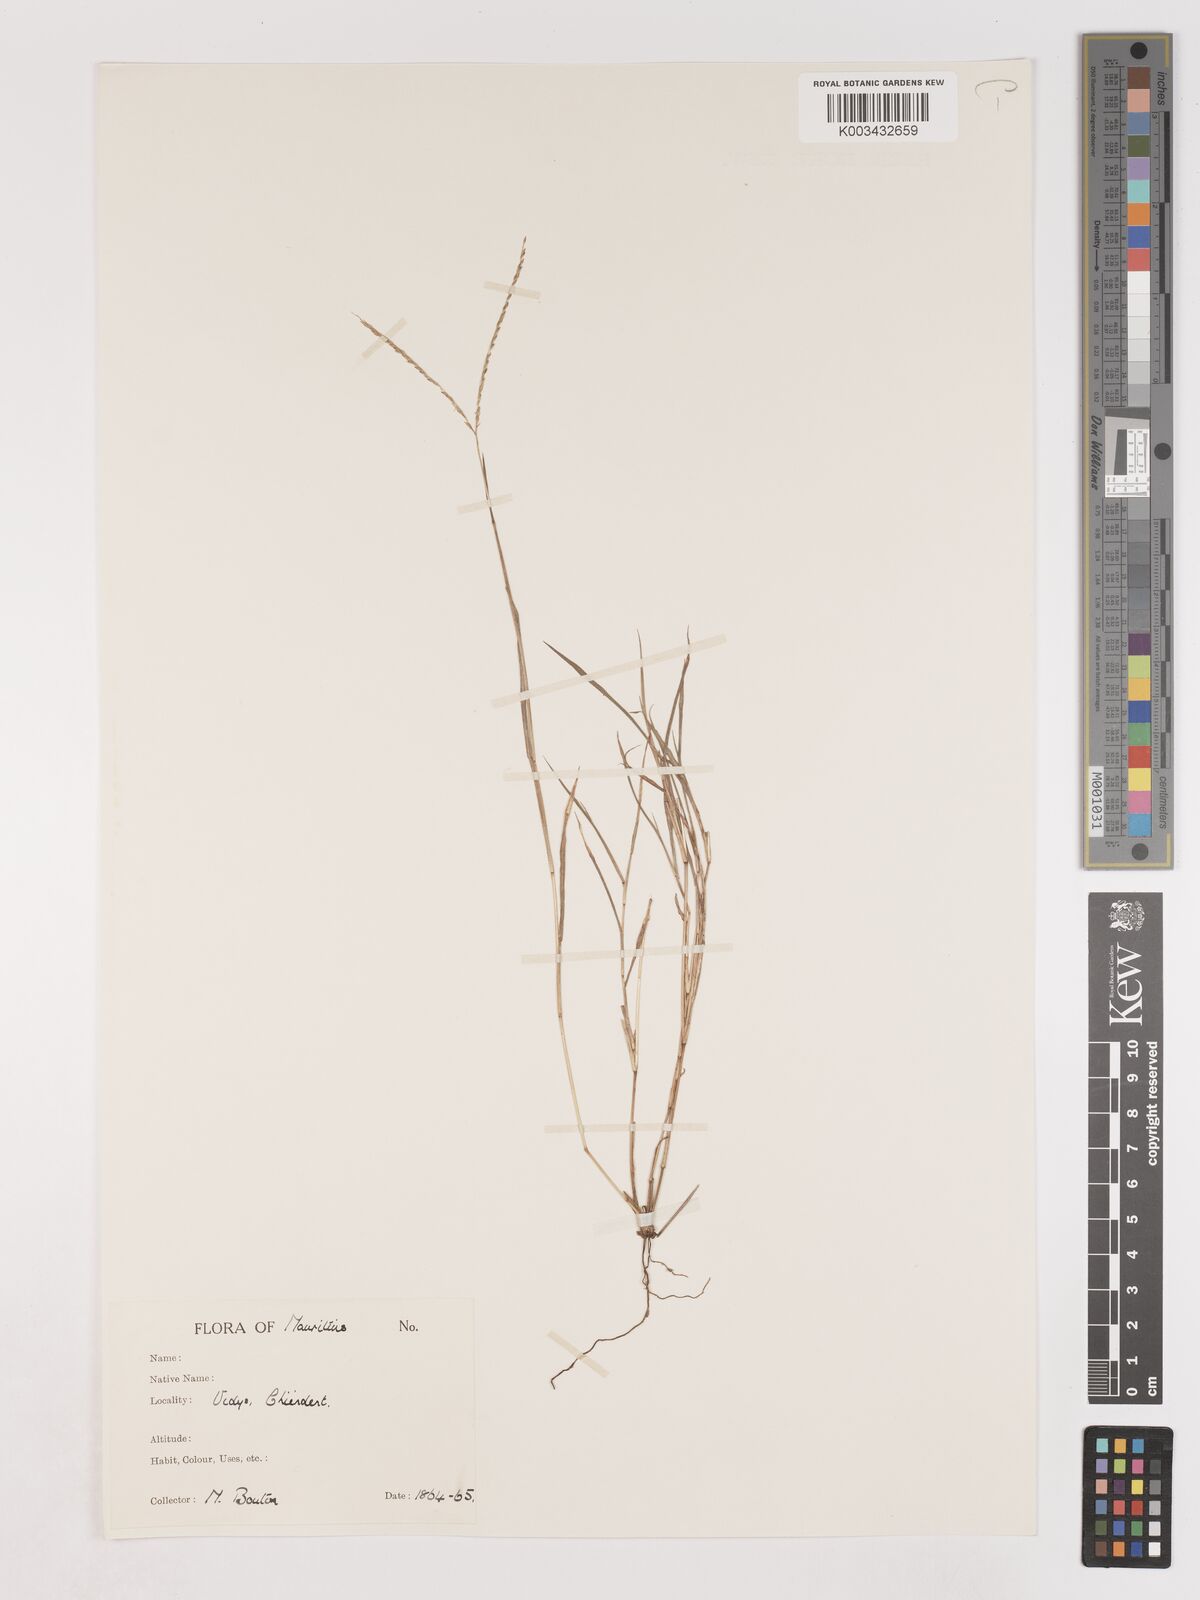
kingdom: Plantae
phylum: Tracheophyta
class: Liliopsida
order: Poales
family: Poaceae
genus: Digitaria
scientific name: Digitaria didactyla
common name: Blue couch
